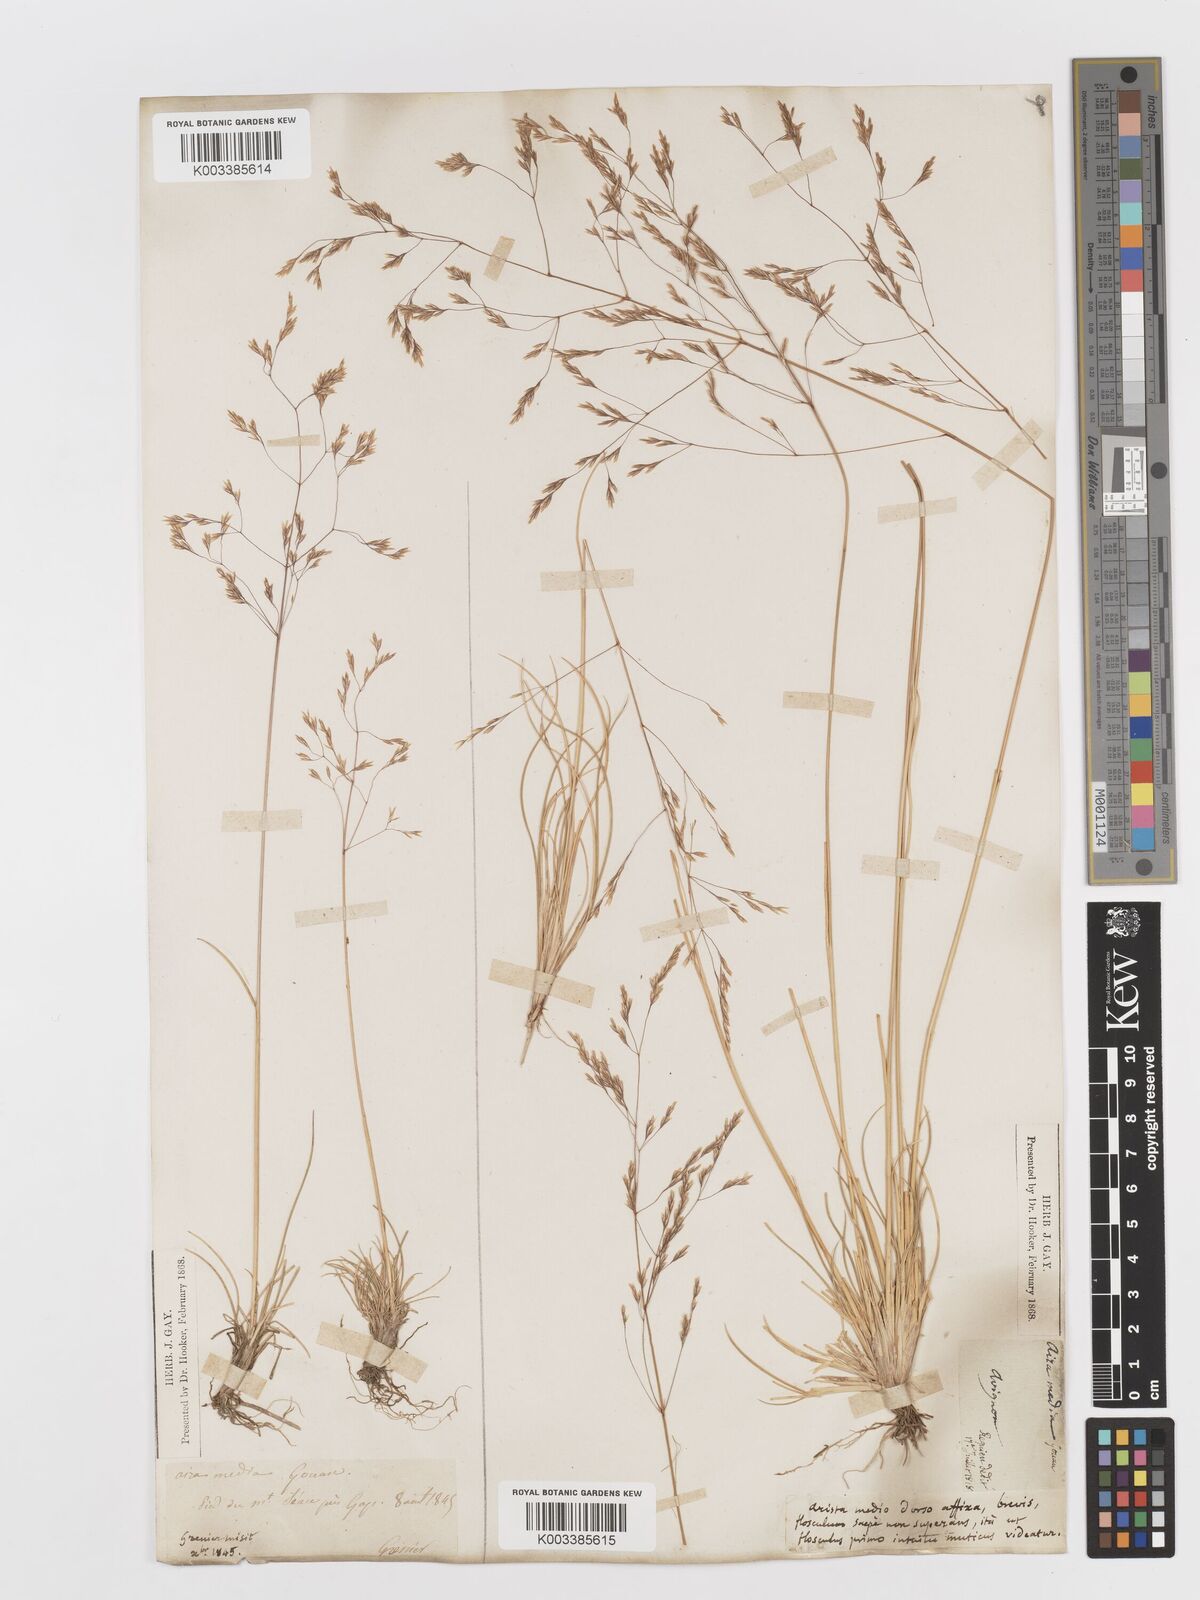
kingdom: Plantae
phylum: Tracheophyta
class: Liliopsida
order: Poales
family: Poaceae
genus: Deschampsia
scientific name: Deschampsia media
